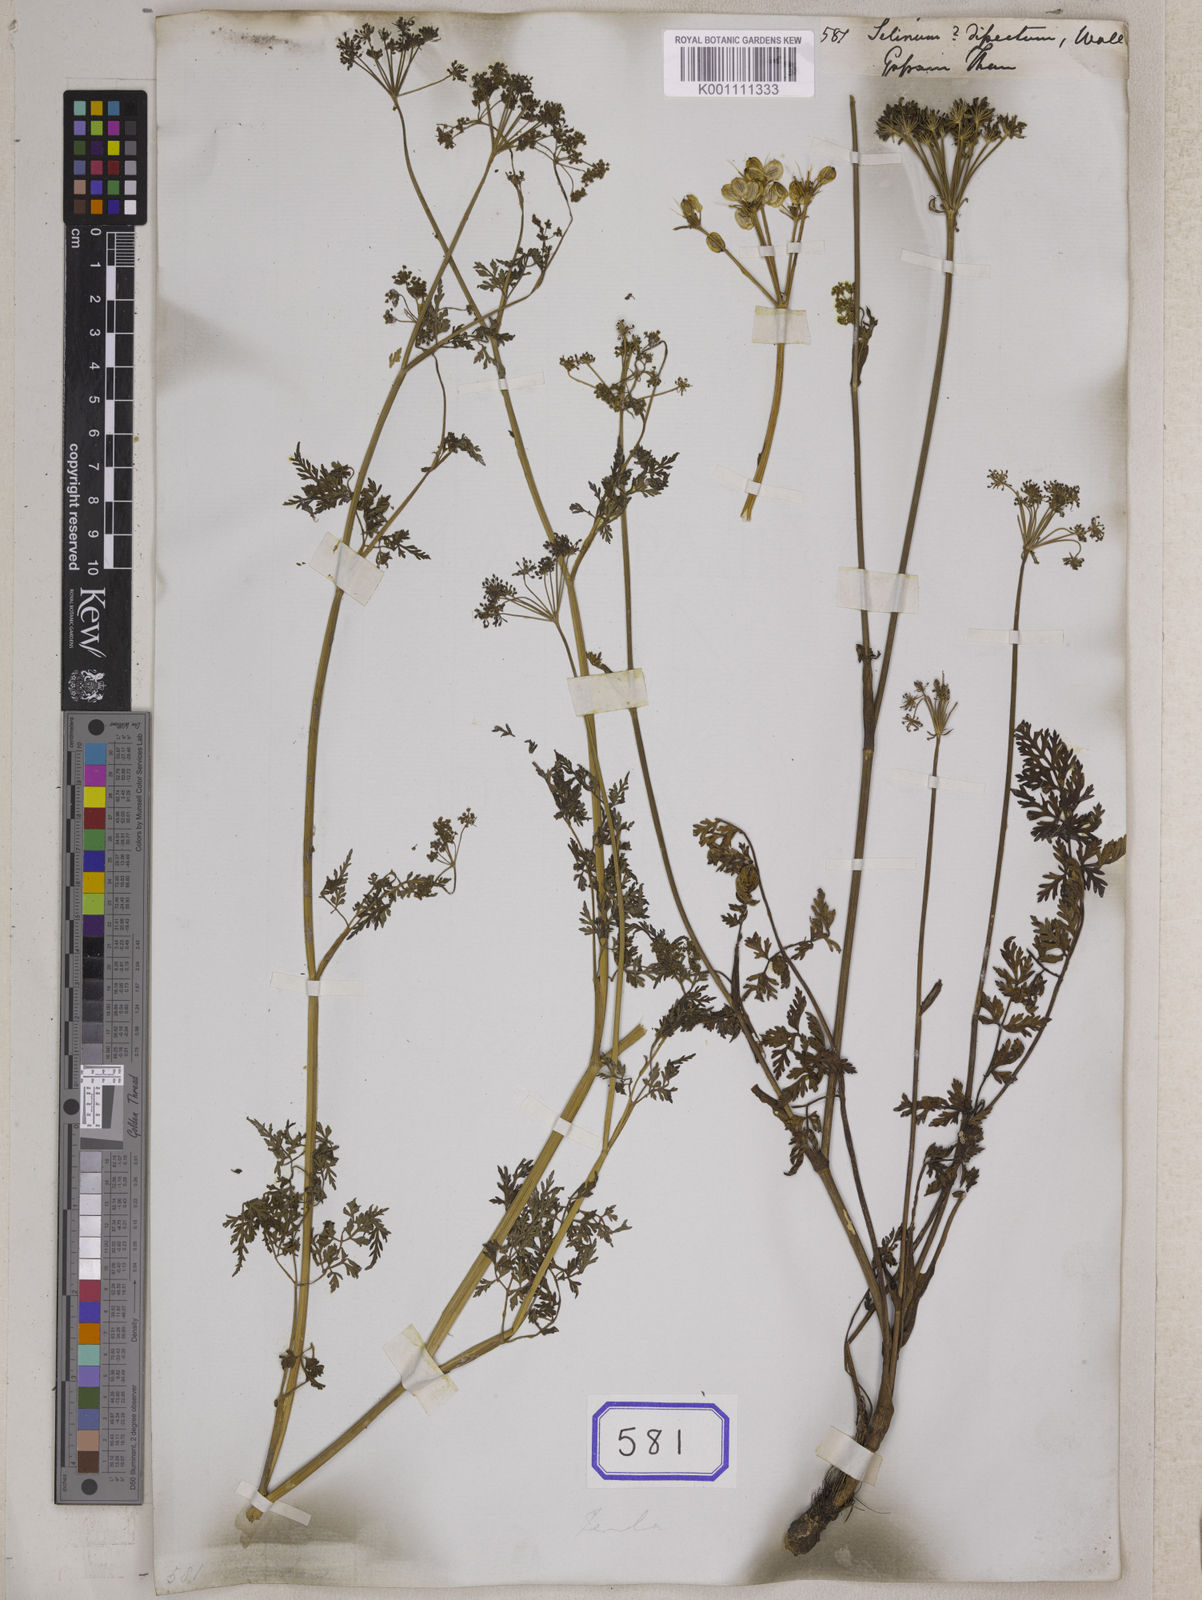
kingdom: Plantae
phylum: Tracheophyta
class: Magnoliopsida
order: Apiales
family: Apiaceae
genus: Selinum
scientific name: Selinum
